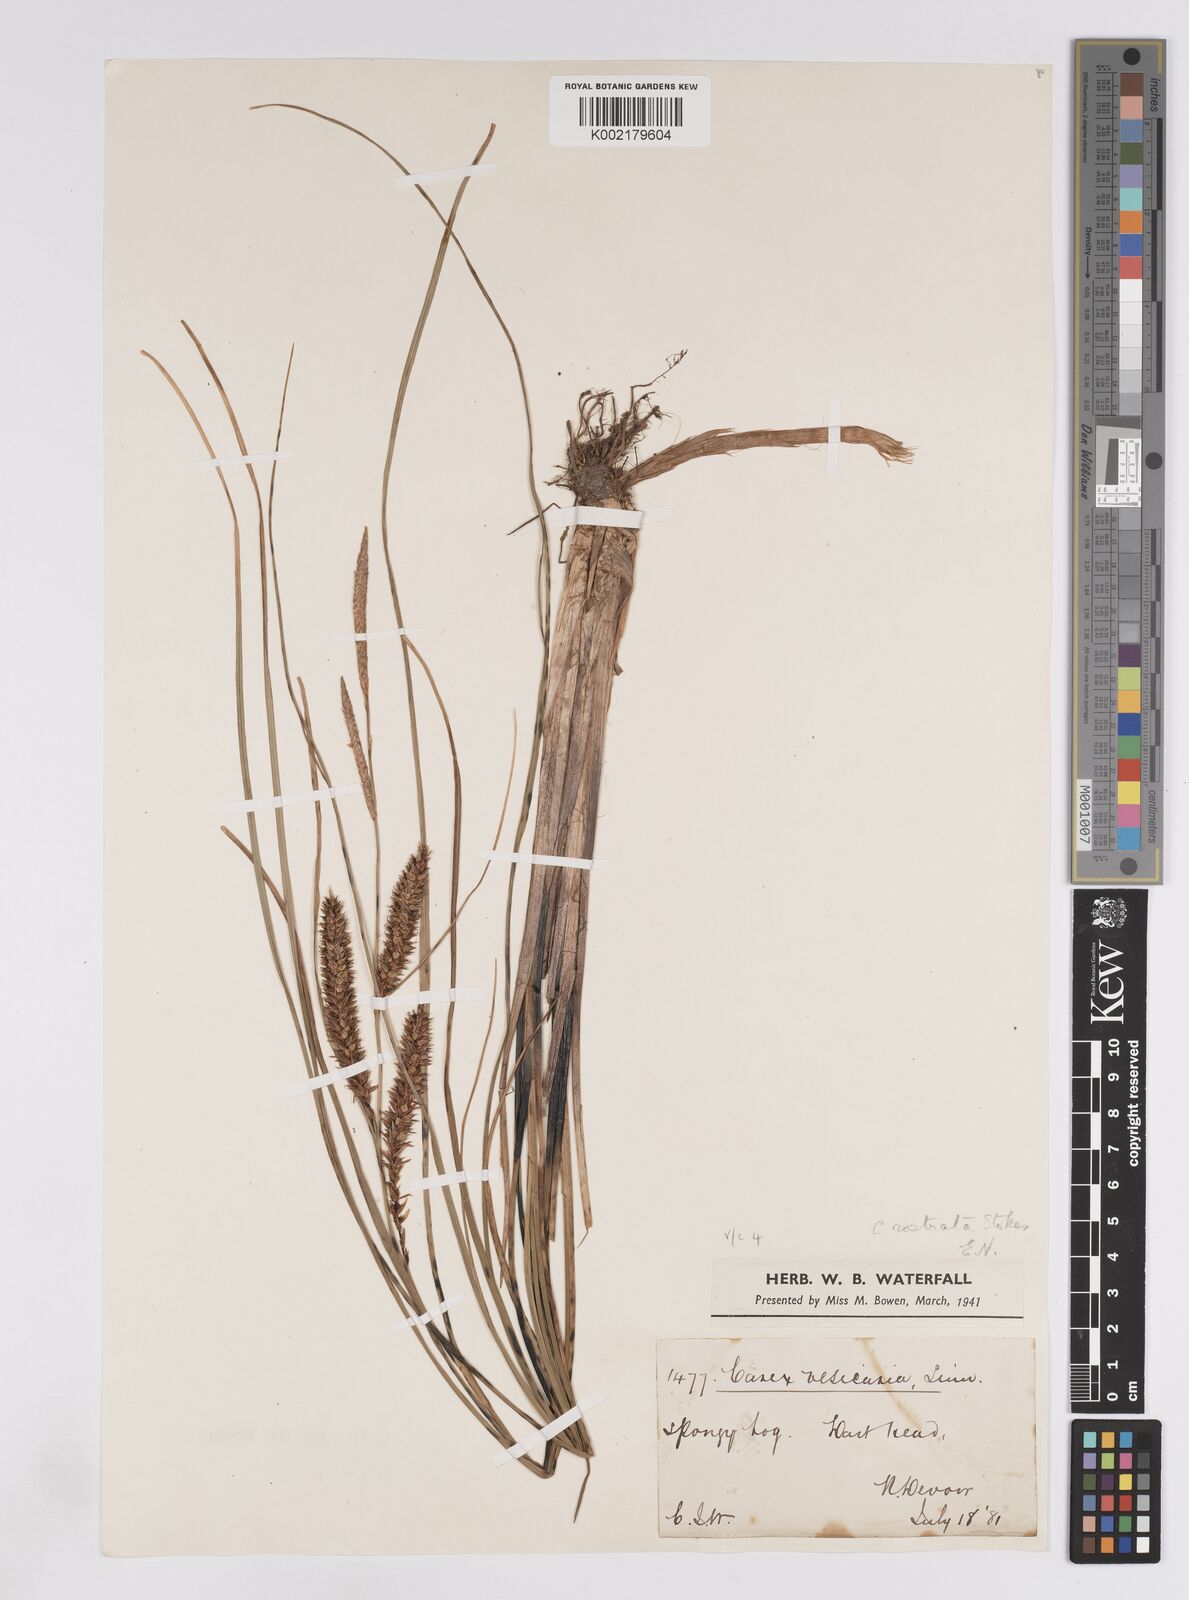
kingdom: Plantae
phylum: Tracheophyta
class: Liliopsida
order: Poales
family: Cyperaceae
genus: Carex
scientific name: Carex rostrata
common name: Bottle sedge
